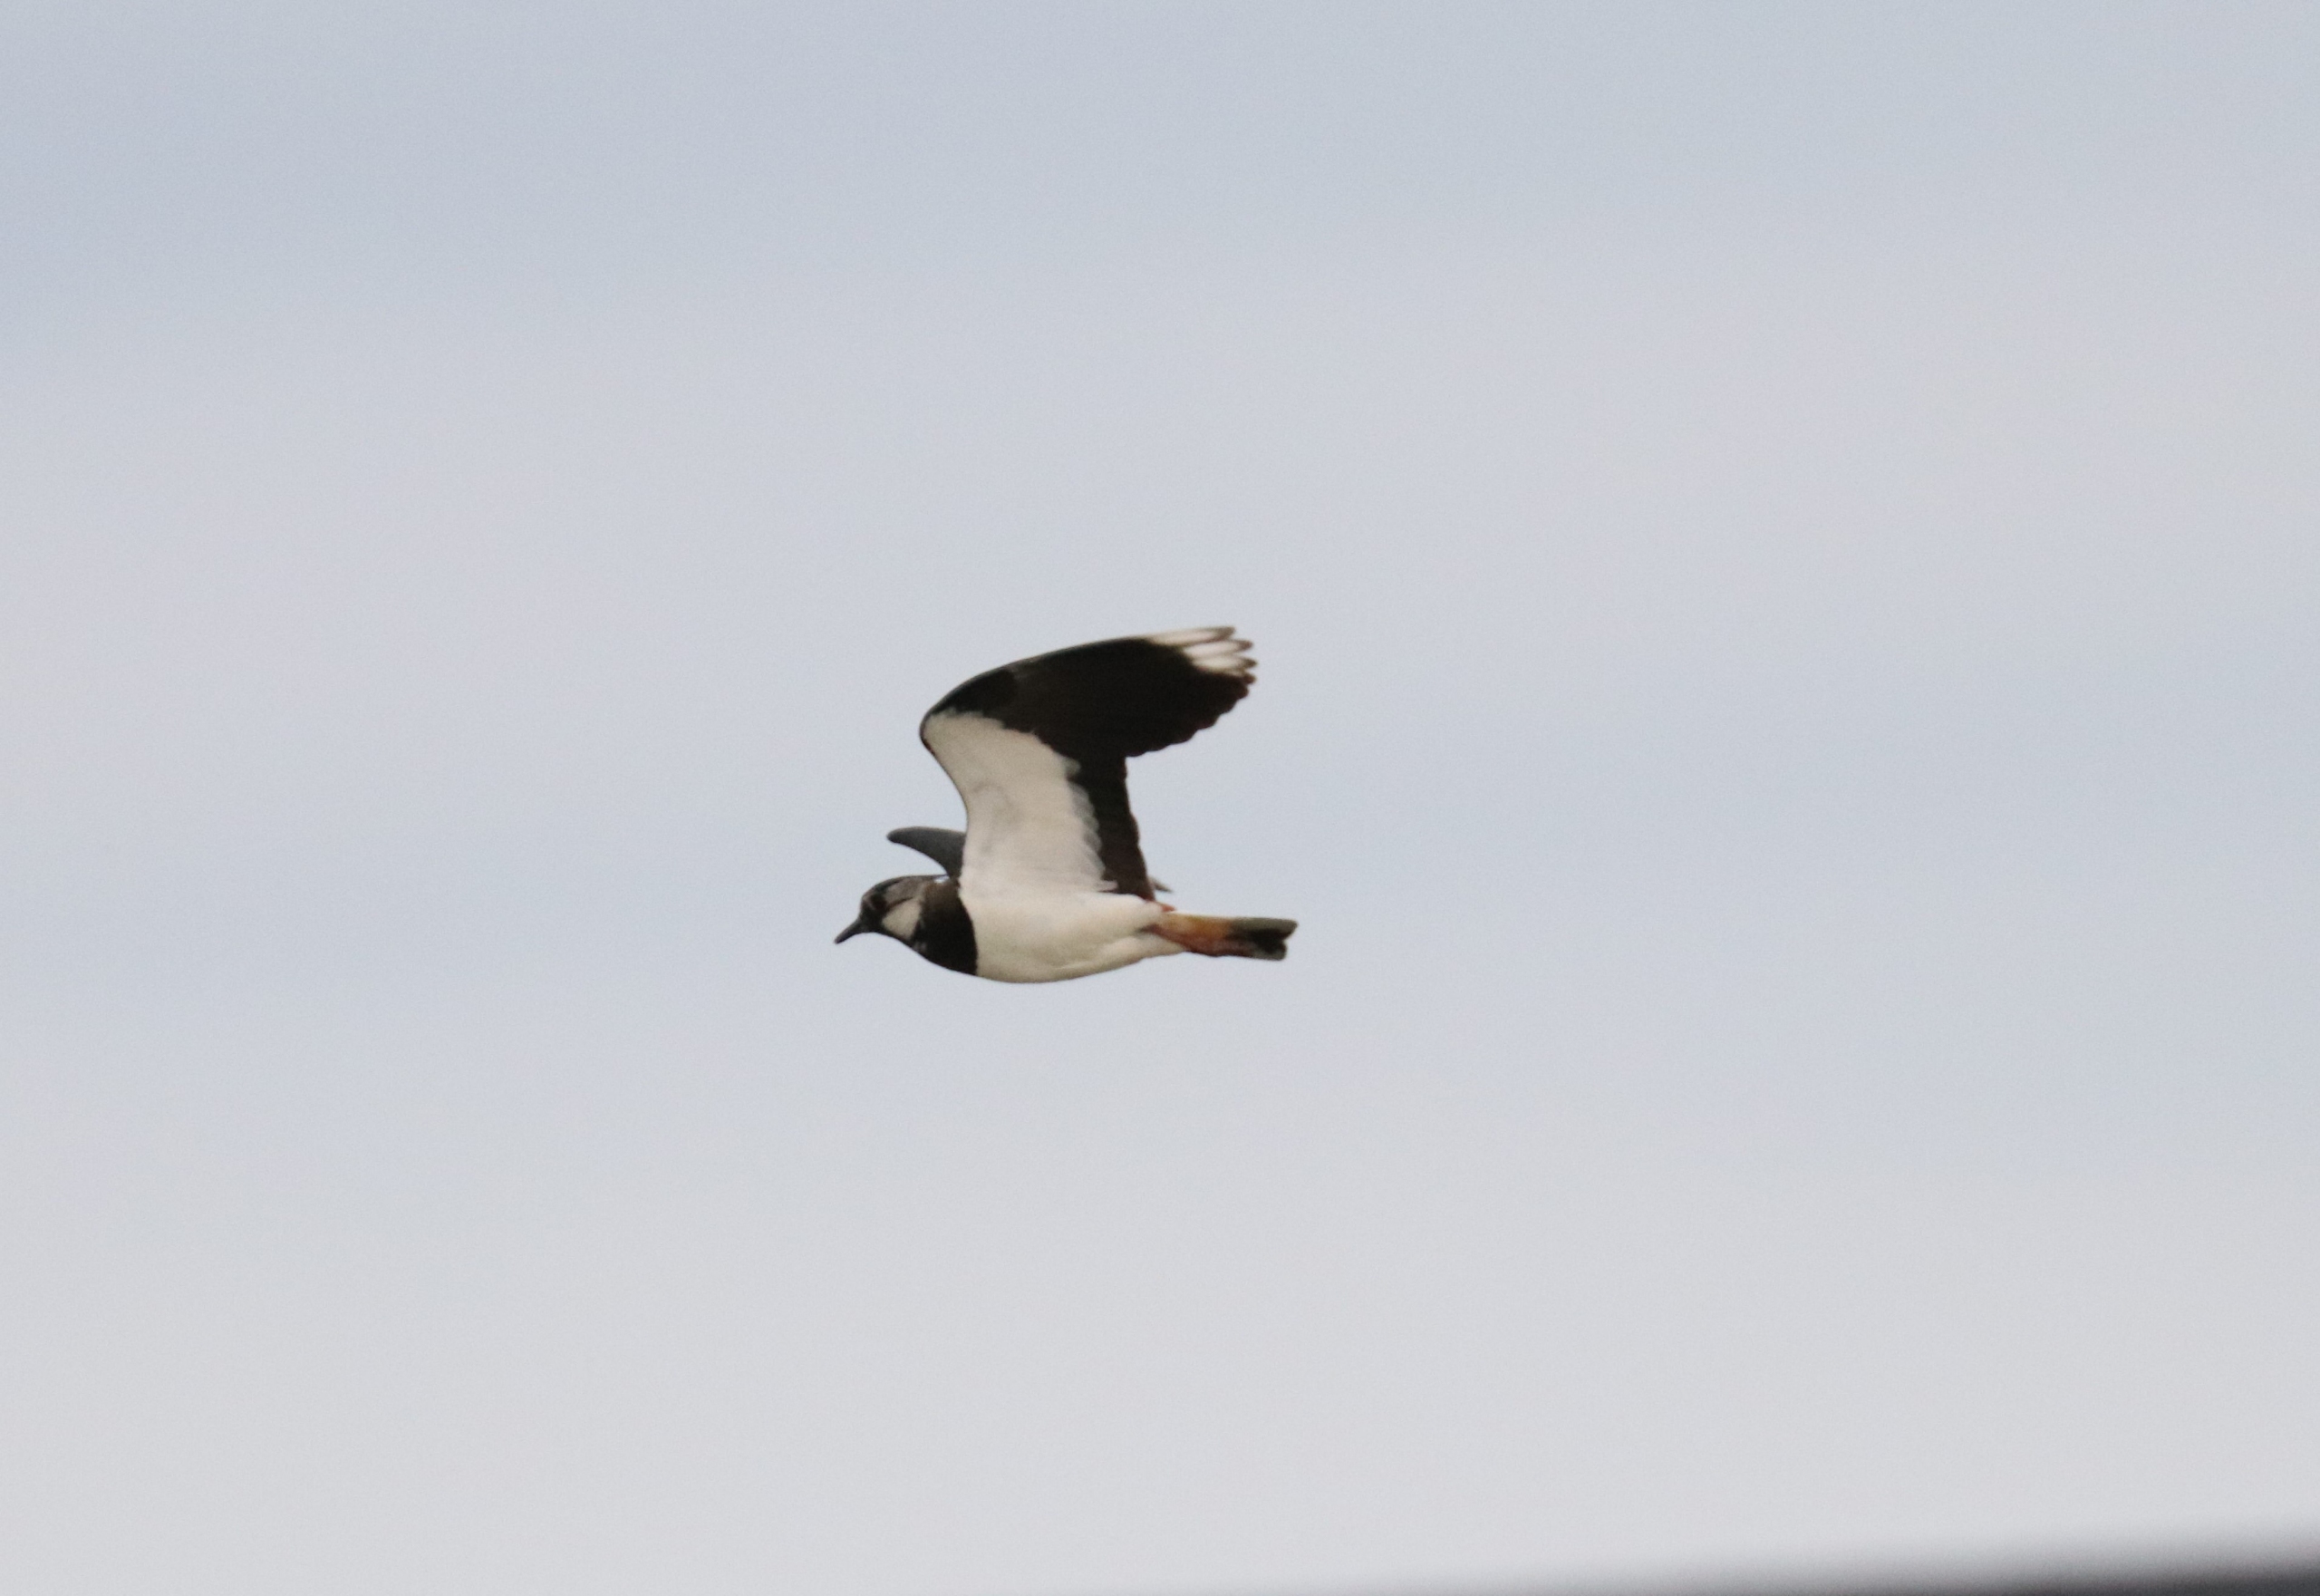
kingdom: Animalia
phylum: Chordata
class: Aves
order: Charadriiformes
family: Charadriidae
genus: Vanellus
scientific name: Vanellus vanellus
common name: Vibe
